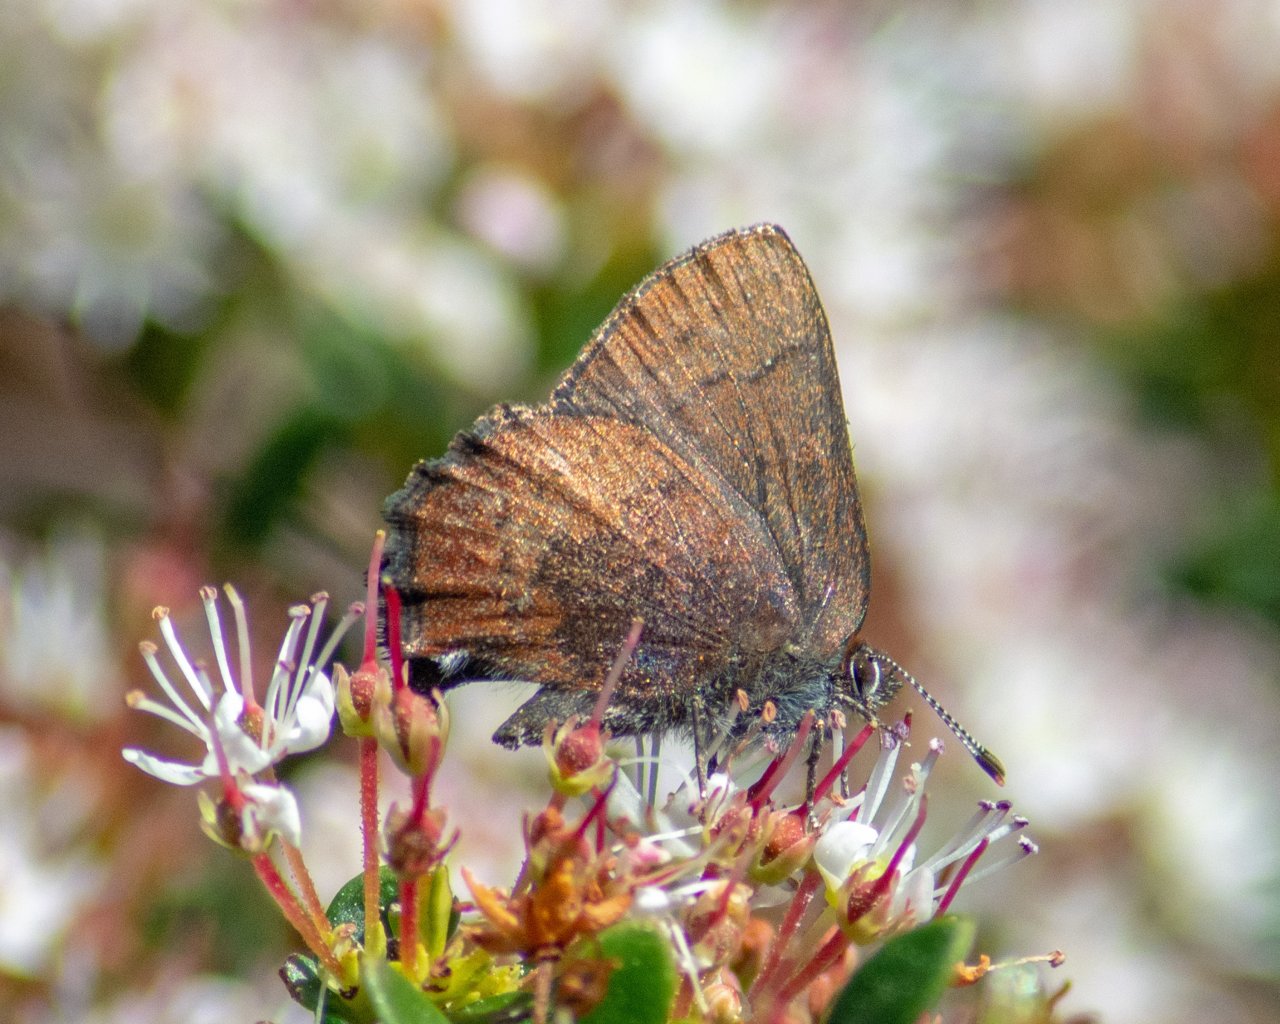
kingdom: Animalia
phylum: Arthropoda
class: Insecta
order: Lepidoptera
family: Lycaenidae
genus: Incisalia
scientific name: Incisalia irioides
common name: Brown Elfin
